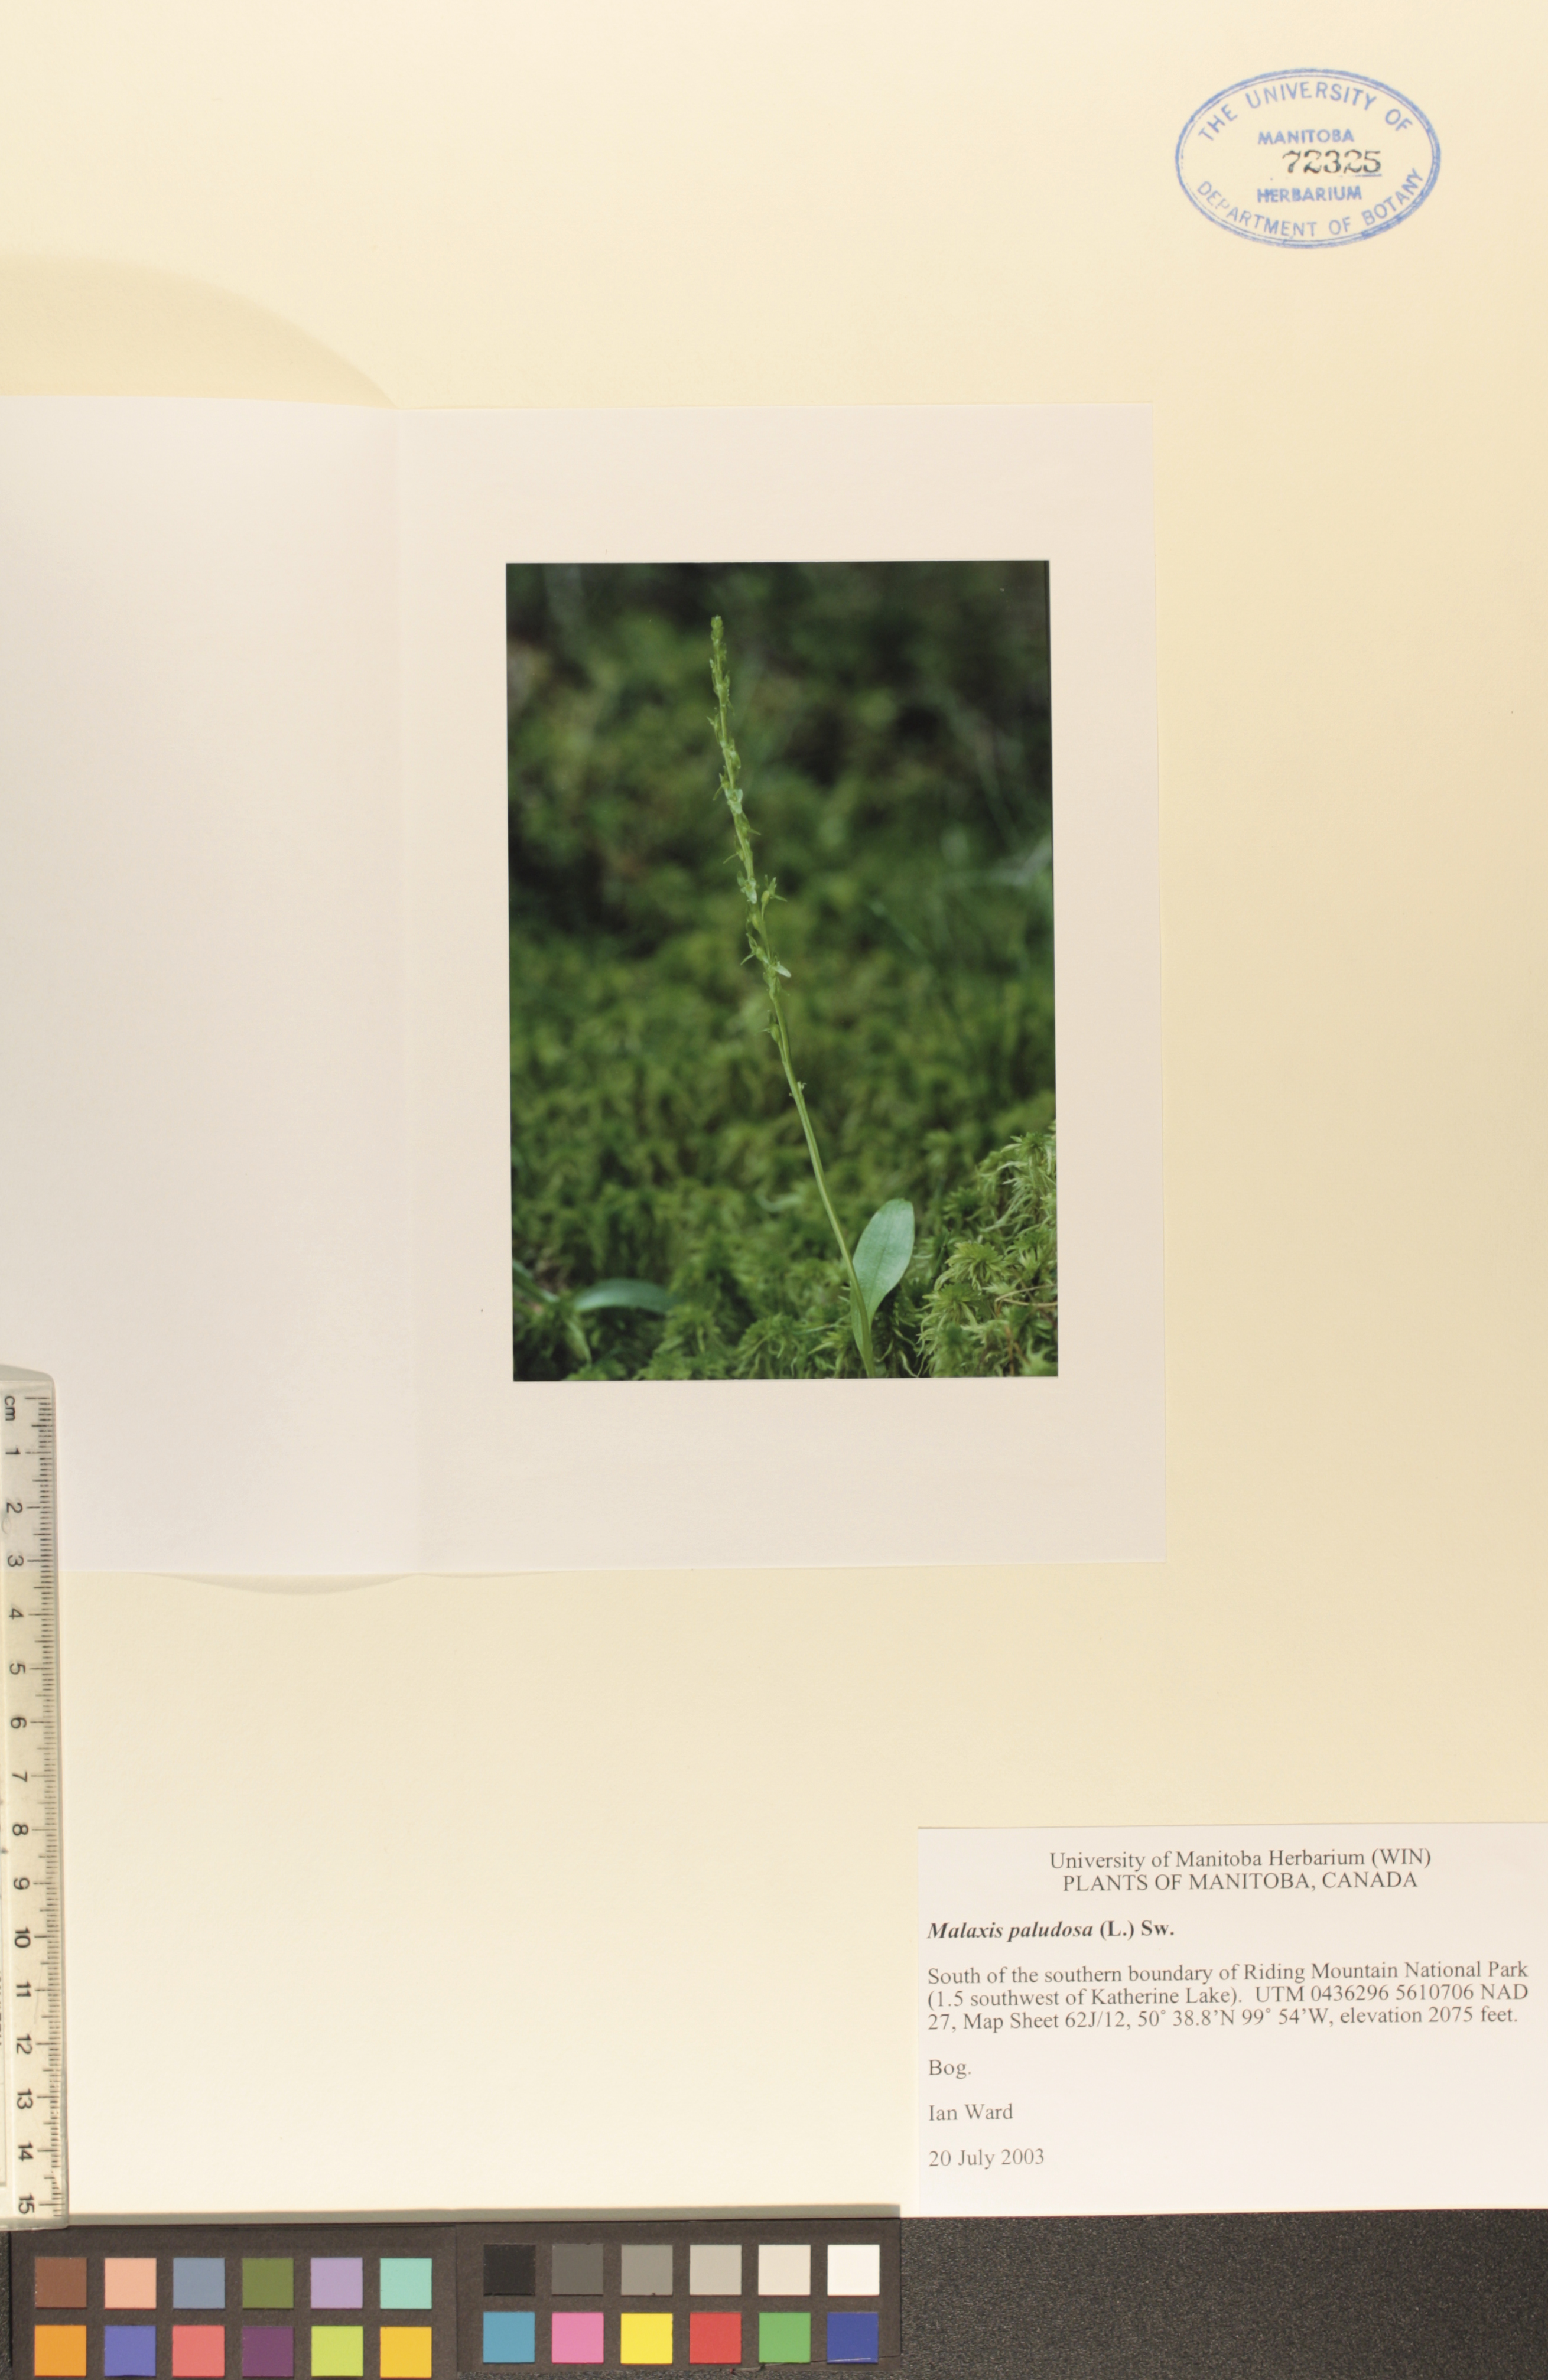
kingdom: Plantae
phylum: Tracheophyta
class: Liliopsida
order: Asparagales
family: Orchidaceae
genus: Hammarbya
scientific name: Hammarbya paludosa
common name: Bog orchid
